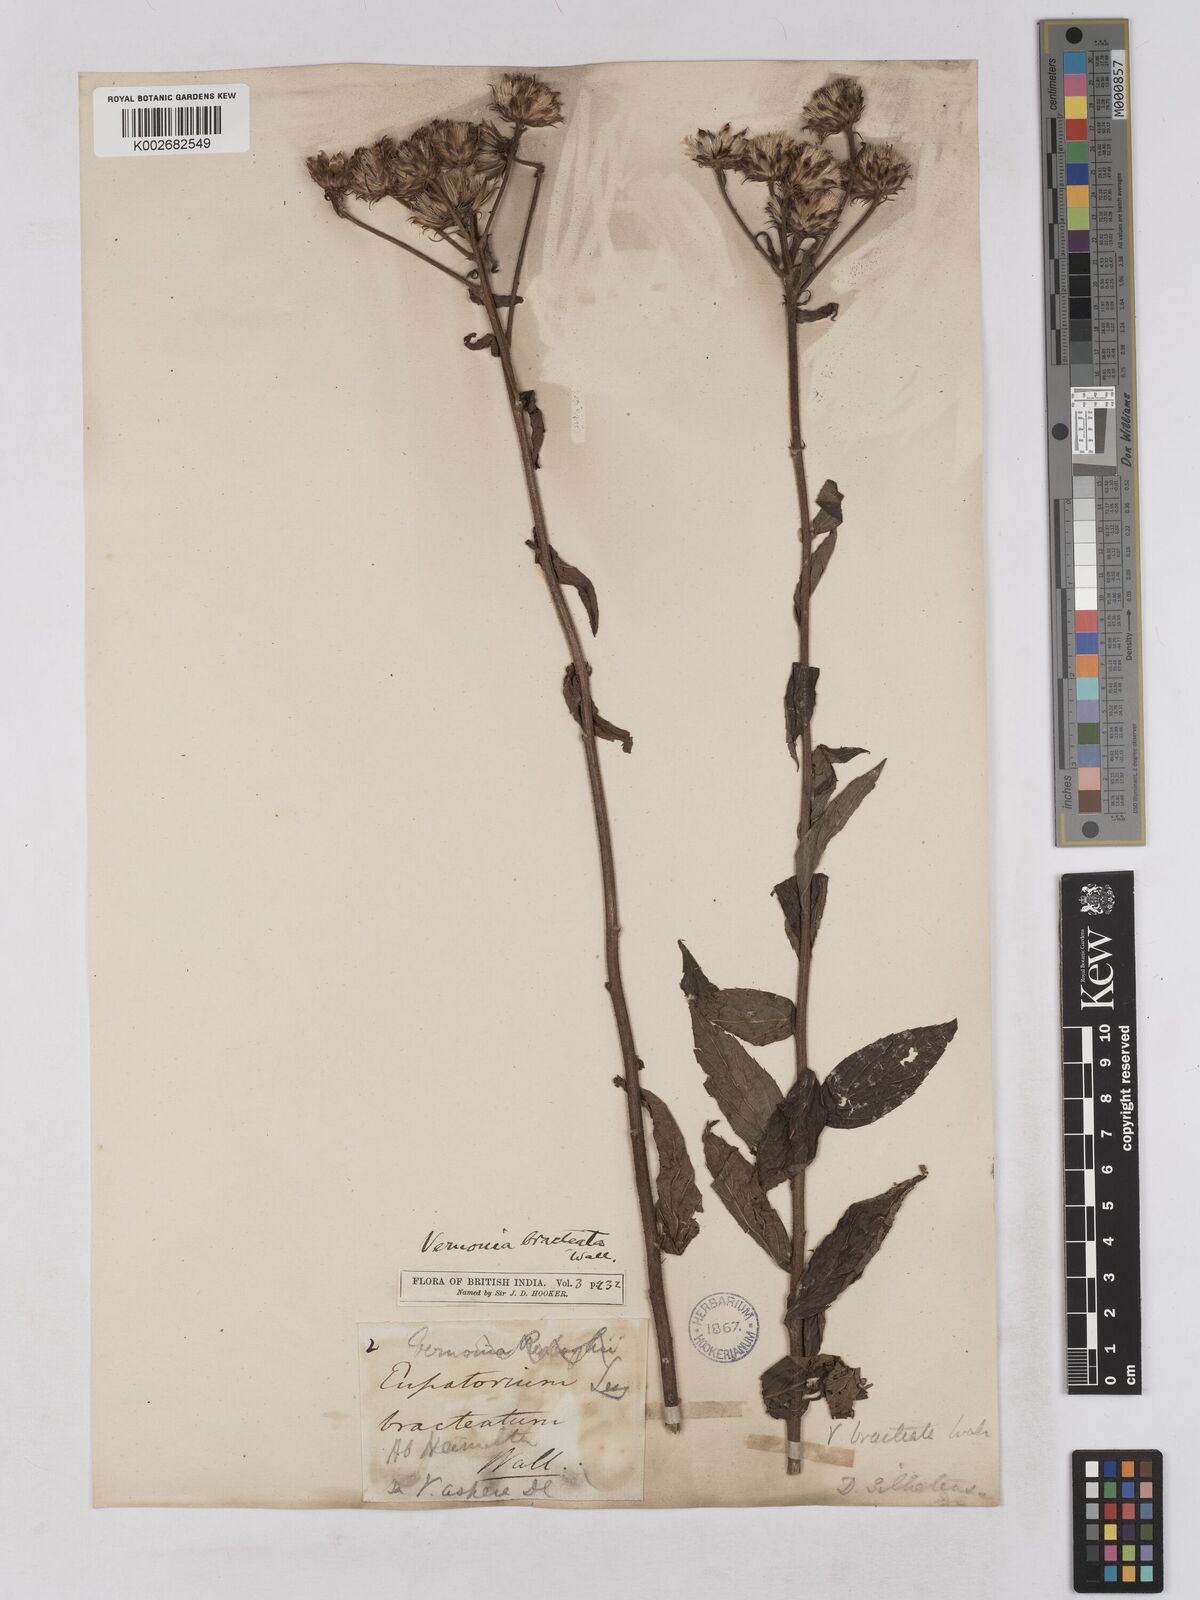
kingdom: Plantae
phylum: Tracheophyta
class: Magnoliopsida
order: Asterales
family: Asteraceae
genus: Acilepis
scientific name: Acilepis silhetensis
